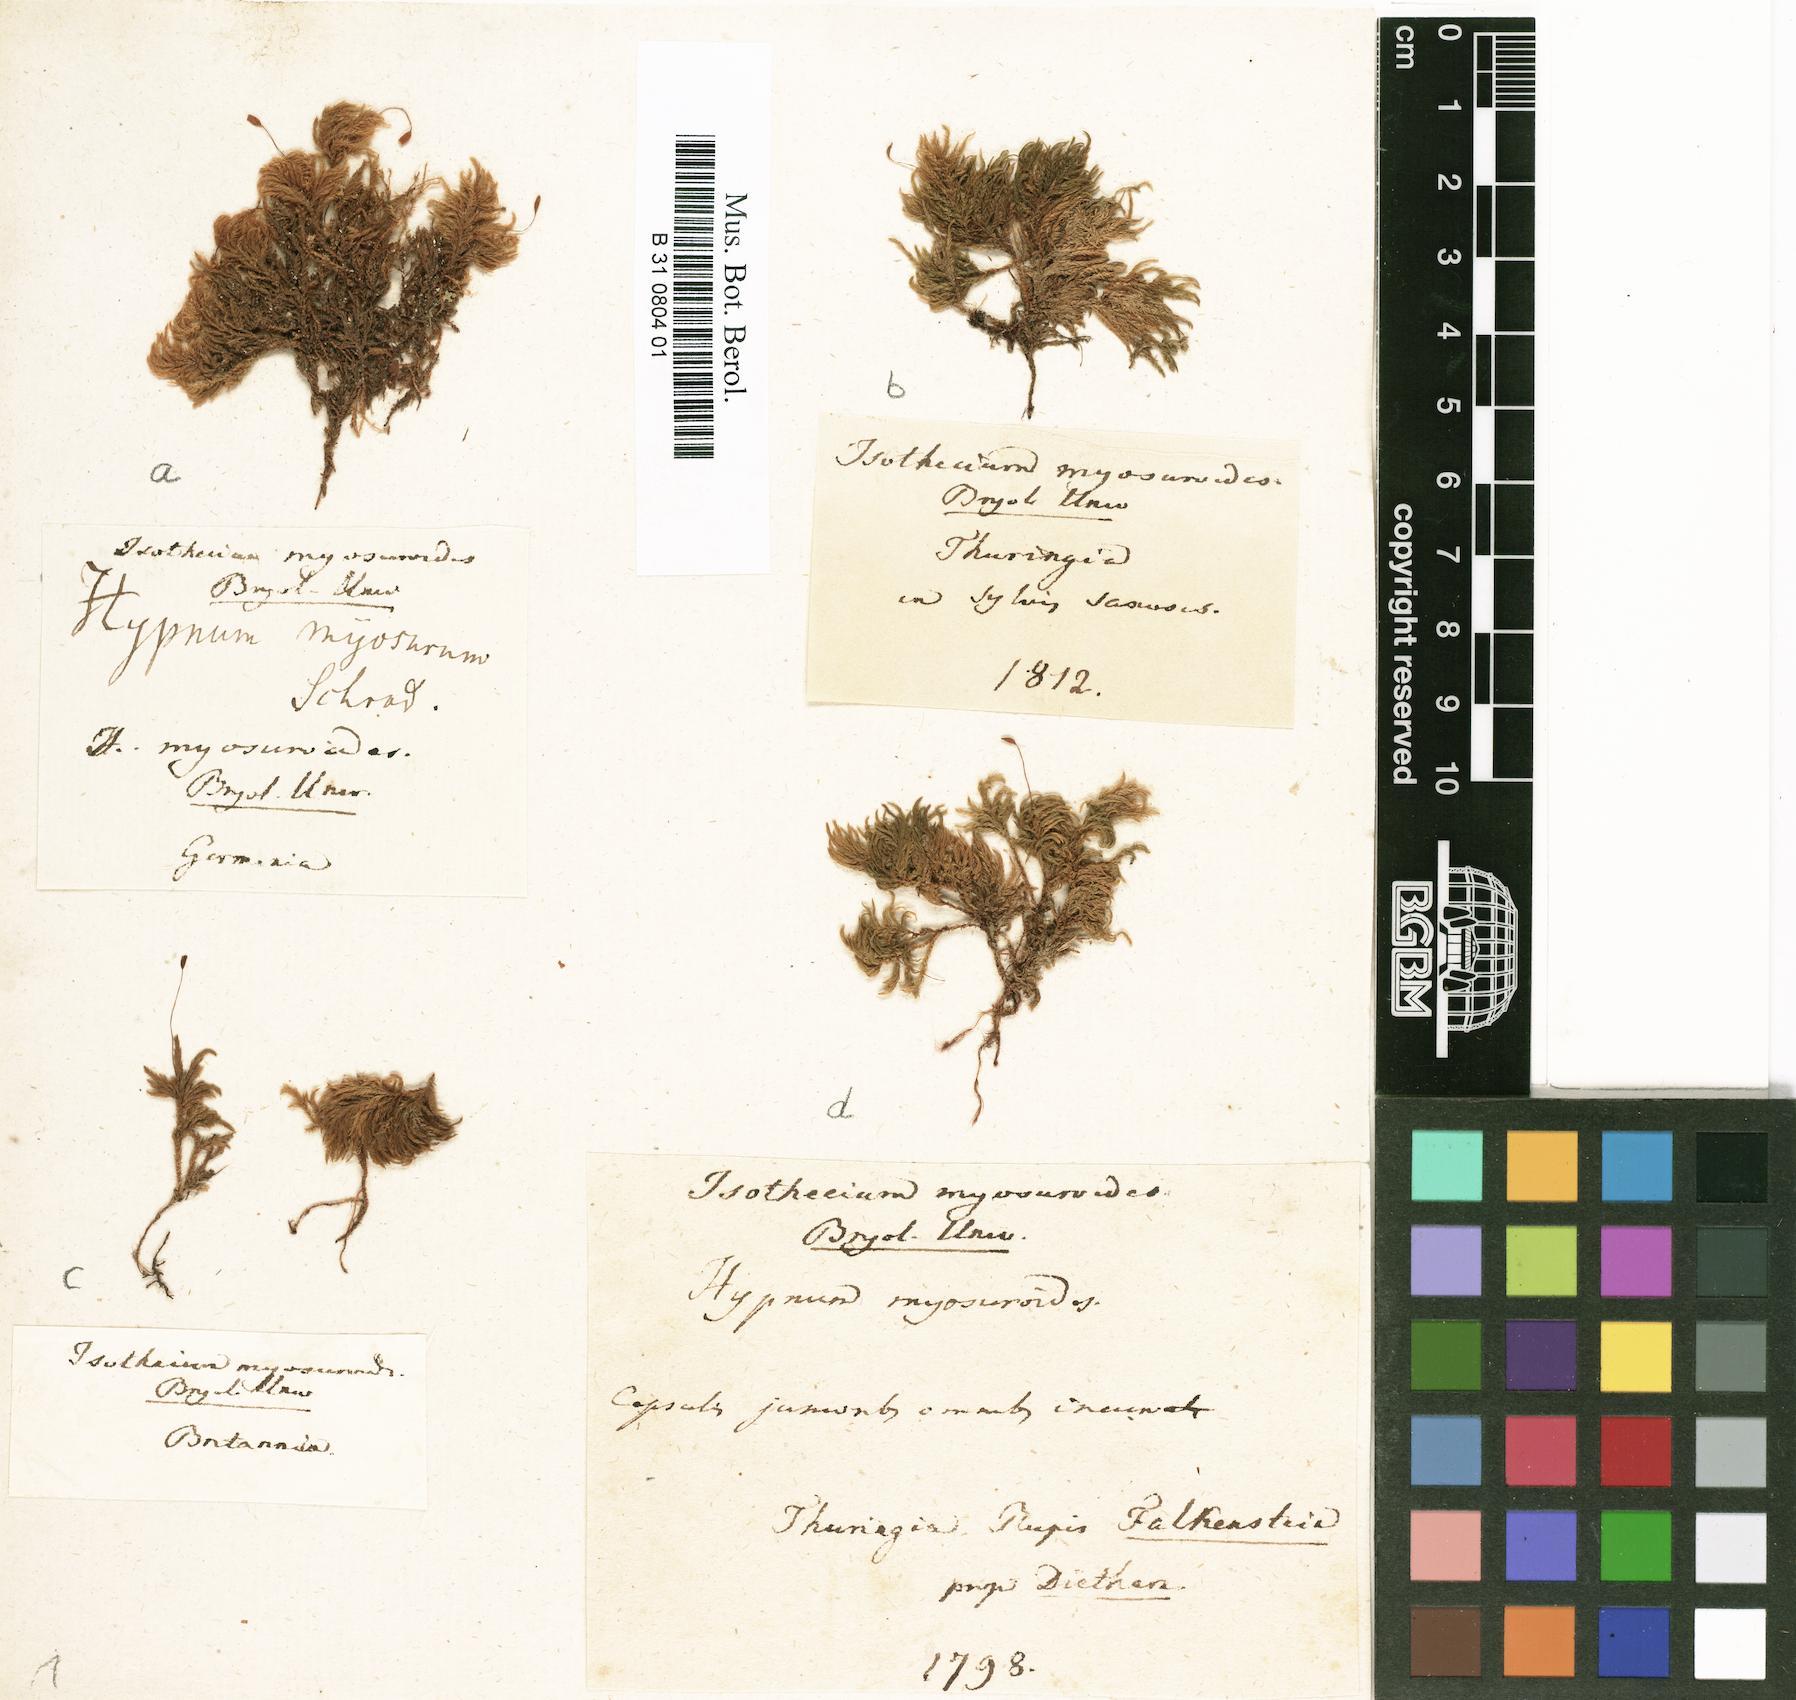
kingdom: Plantae
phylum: Bryophyta
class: Bryopsida
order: Hypnales
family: Lembophyllaceae
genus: Pseudisothecium
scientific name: Pseudisothecium myosuroides
